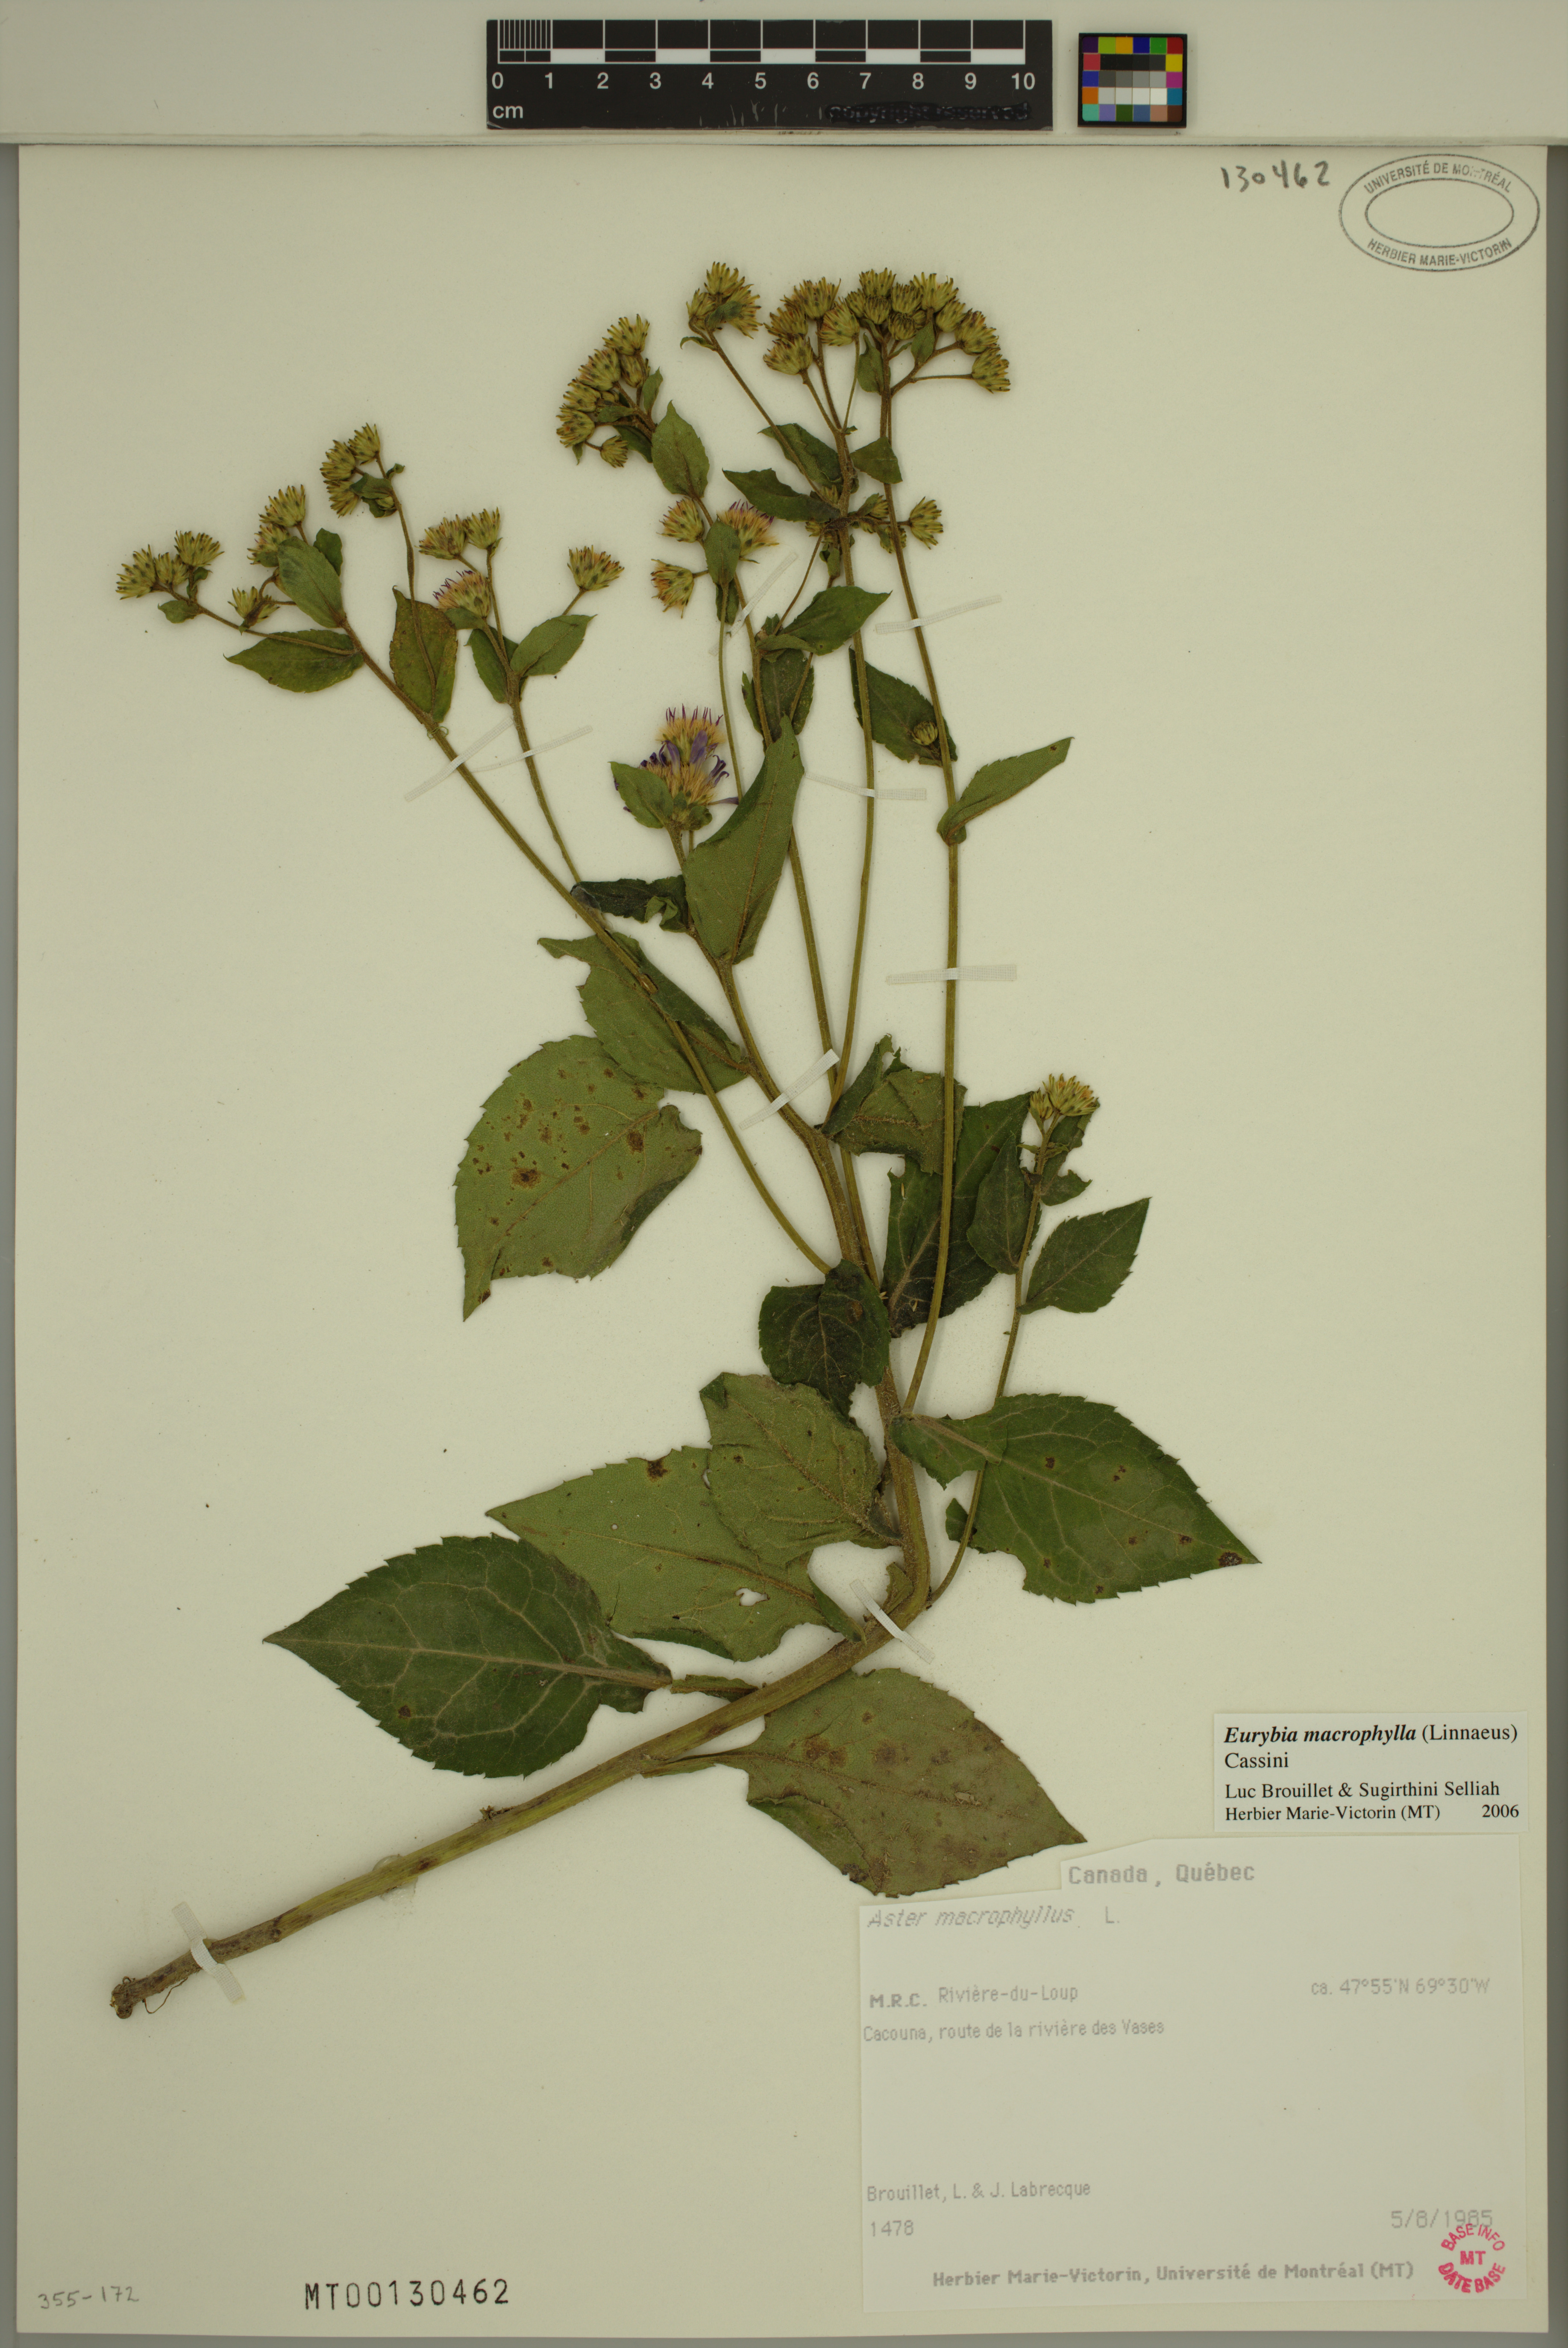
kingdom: Plantae
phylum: Tracheophyta
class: Magnoliopsida
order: Asterales
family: Asteraceae
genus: Eurybia
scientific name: Eurybia macrophylla
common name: Big-leaved aster
